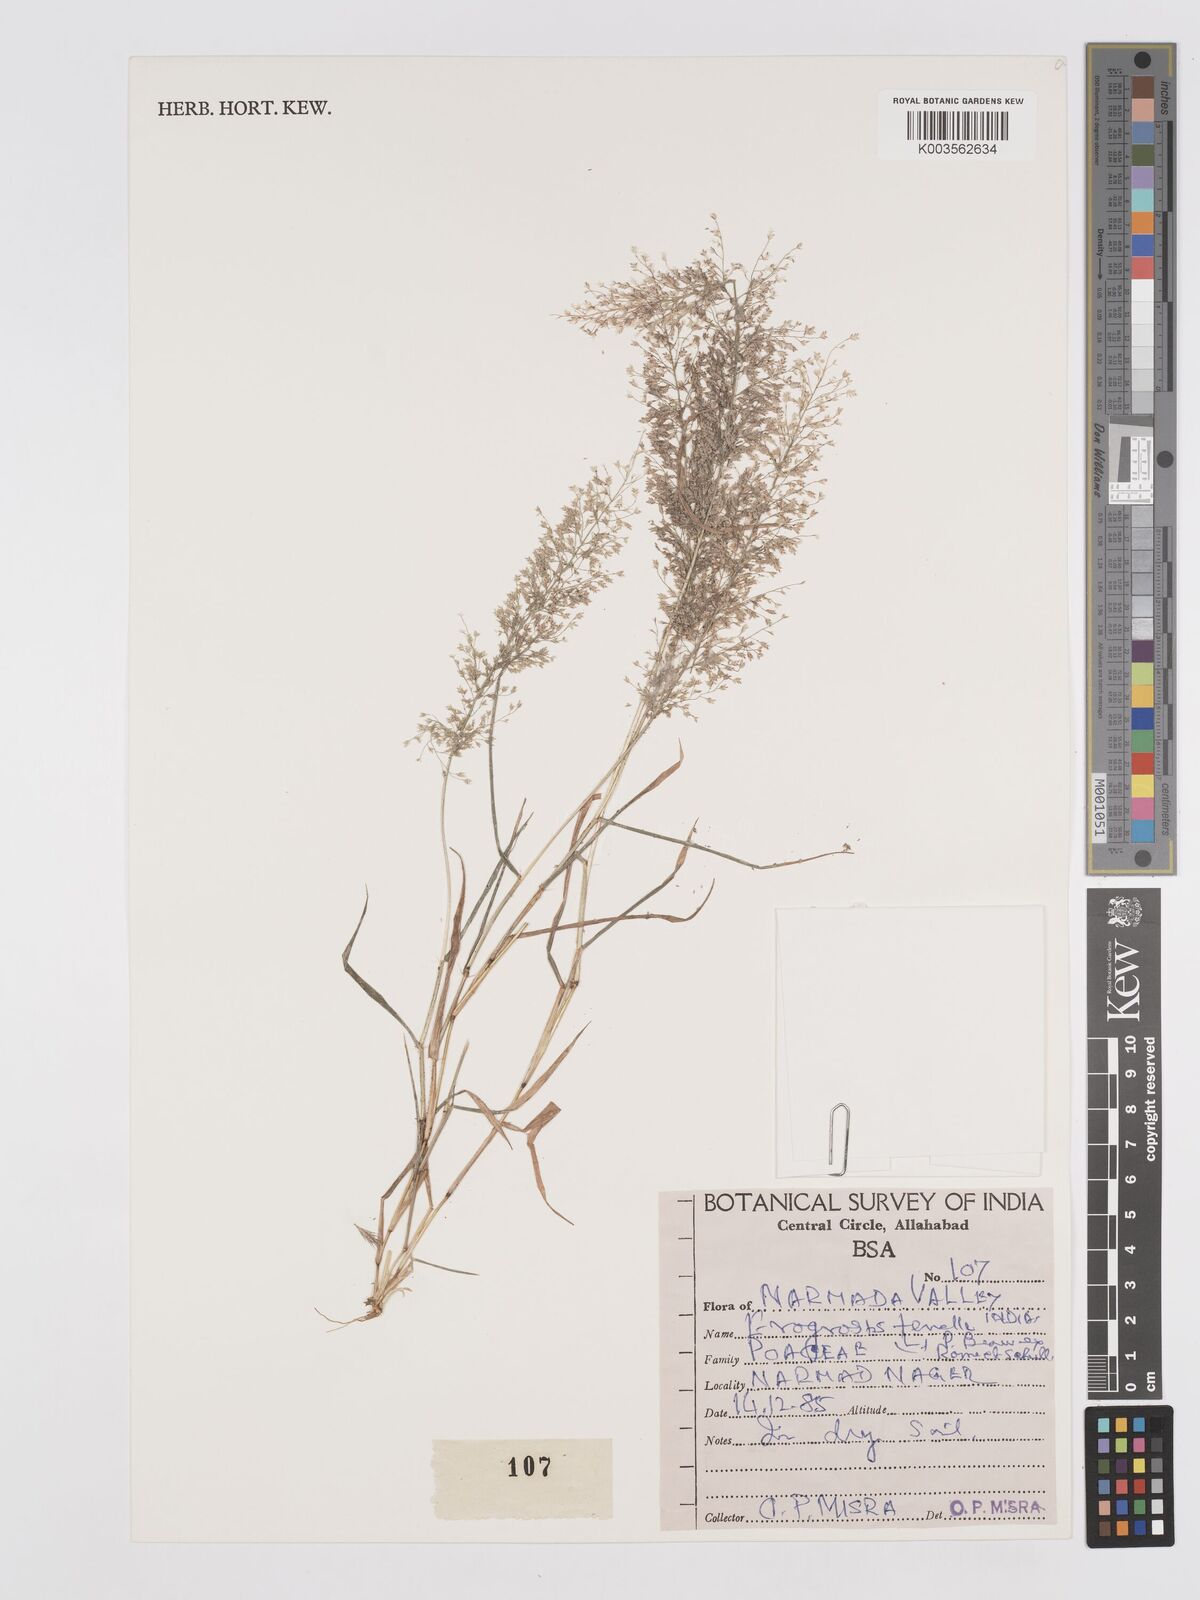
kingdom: Plantae
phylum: Tracheophyta
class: Liliopsida
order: Poales
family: Poaceae
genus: Eragrostis
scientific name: Eragrostis tenella
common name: Japanese lovegrass
